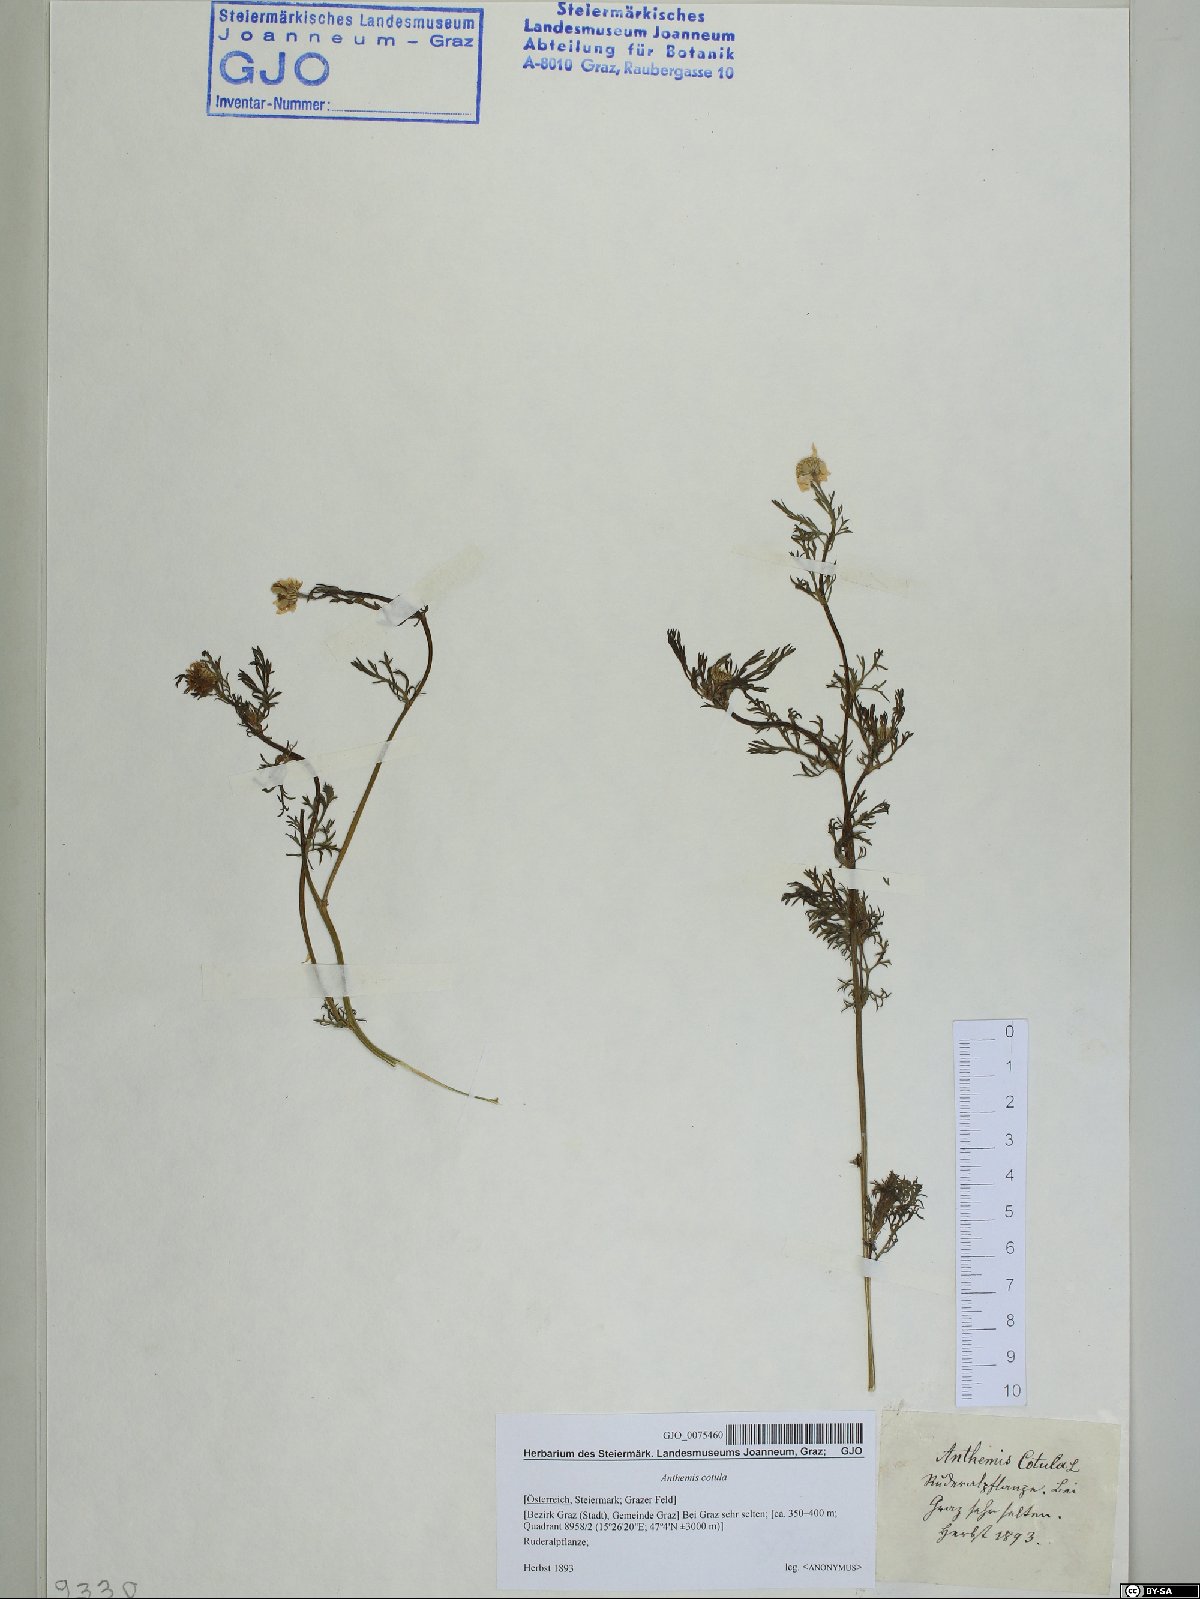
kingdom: Plantae
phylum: Tracheophyta
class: Magnoliopsida
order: Asterales
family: Asteraceae
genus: Anthemis
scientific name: Anthemis cotula
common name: Stinking chamomile
